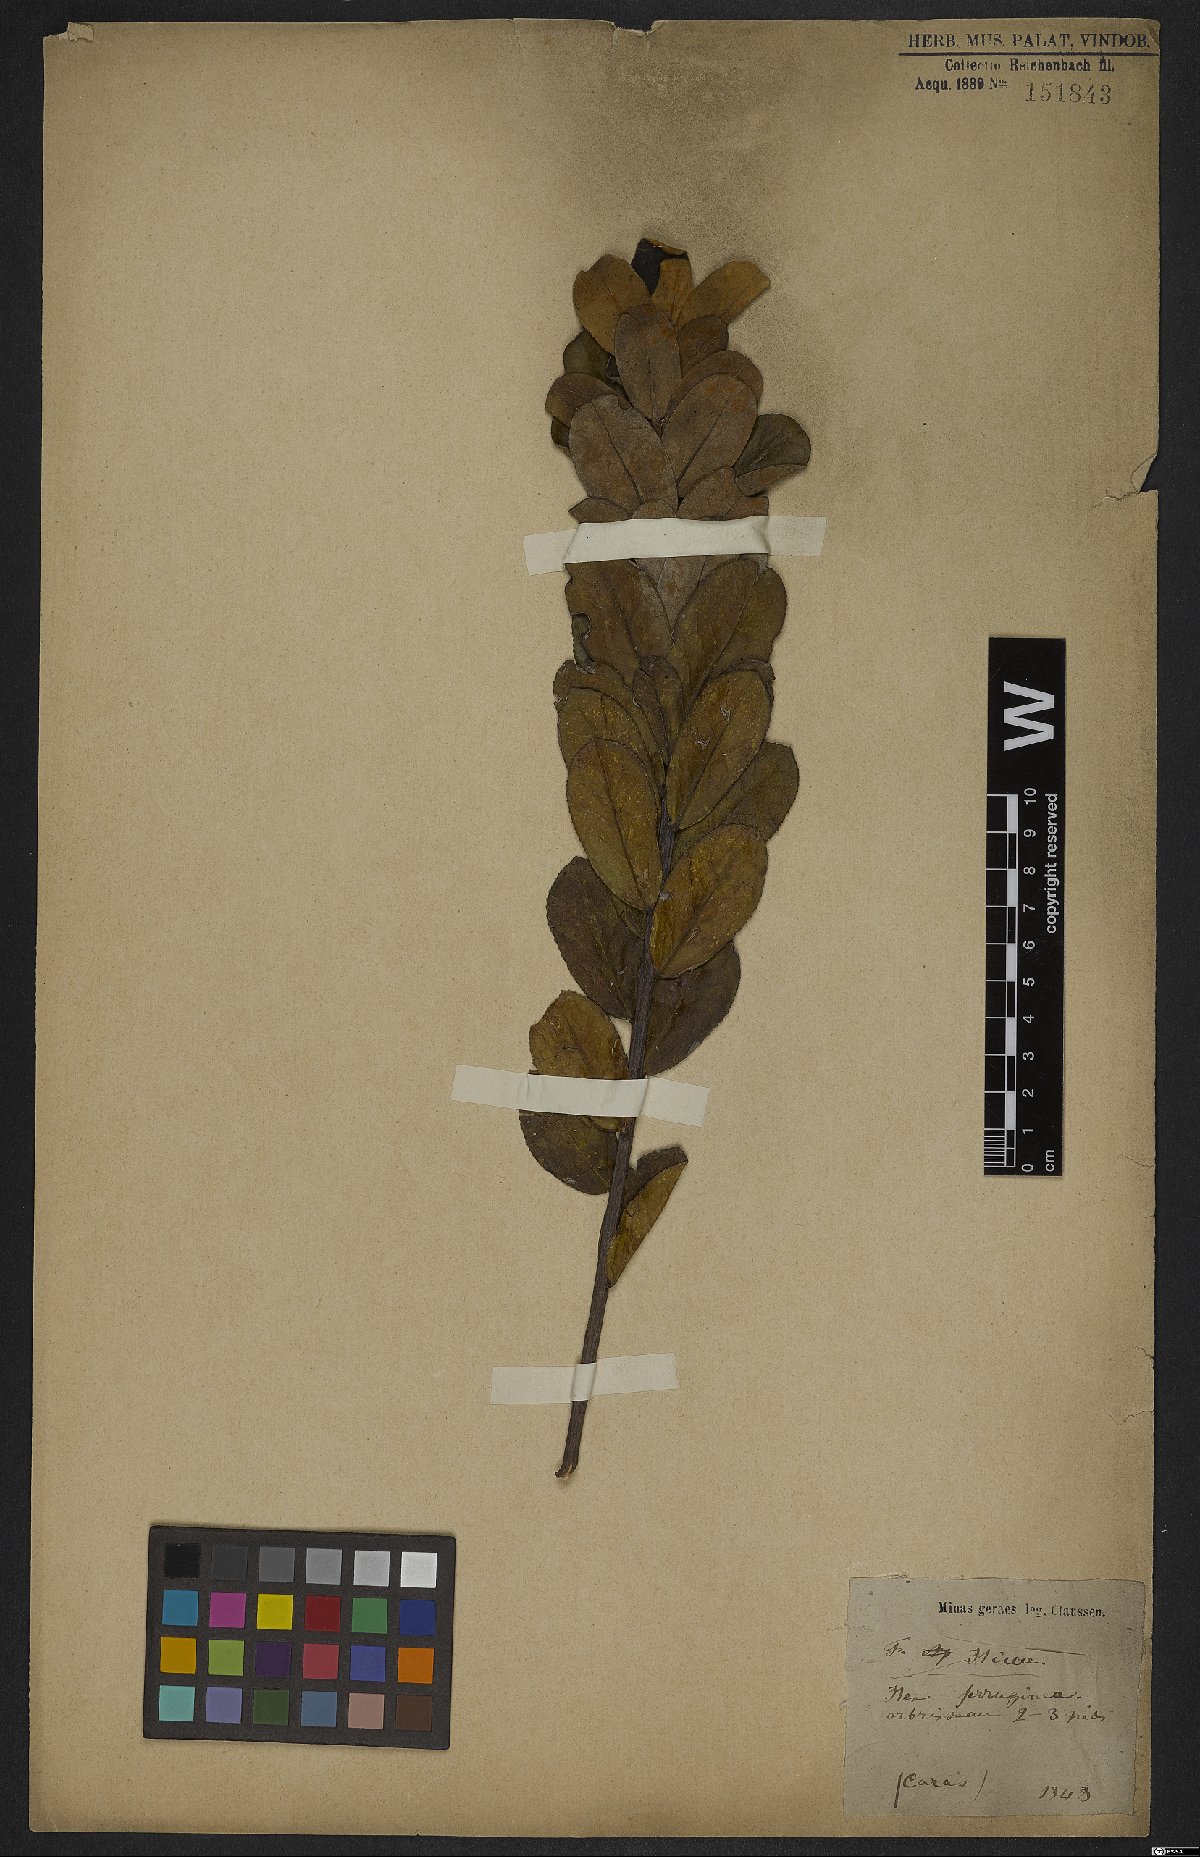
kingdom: Plantae
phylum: Tracheophyta
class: Magnoliopsida
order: Aquifoliales
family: Aquifoliaceae
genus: Ilex
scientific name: Ilex ferruginea
